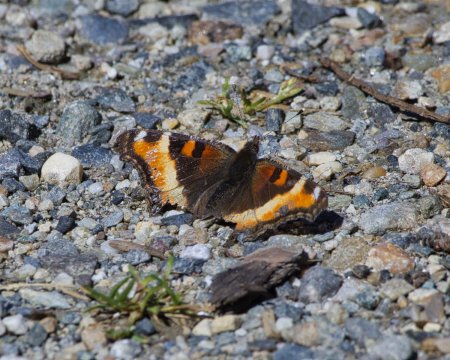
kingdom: Animalia
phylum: Arthropoda
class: Insecta
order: Lepidoptera
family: Nymphalidae
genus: Aglais
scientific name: Aglais milberti
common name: Milbert's Tortoiseshell
